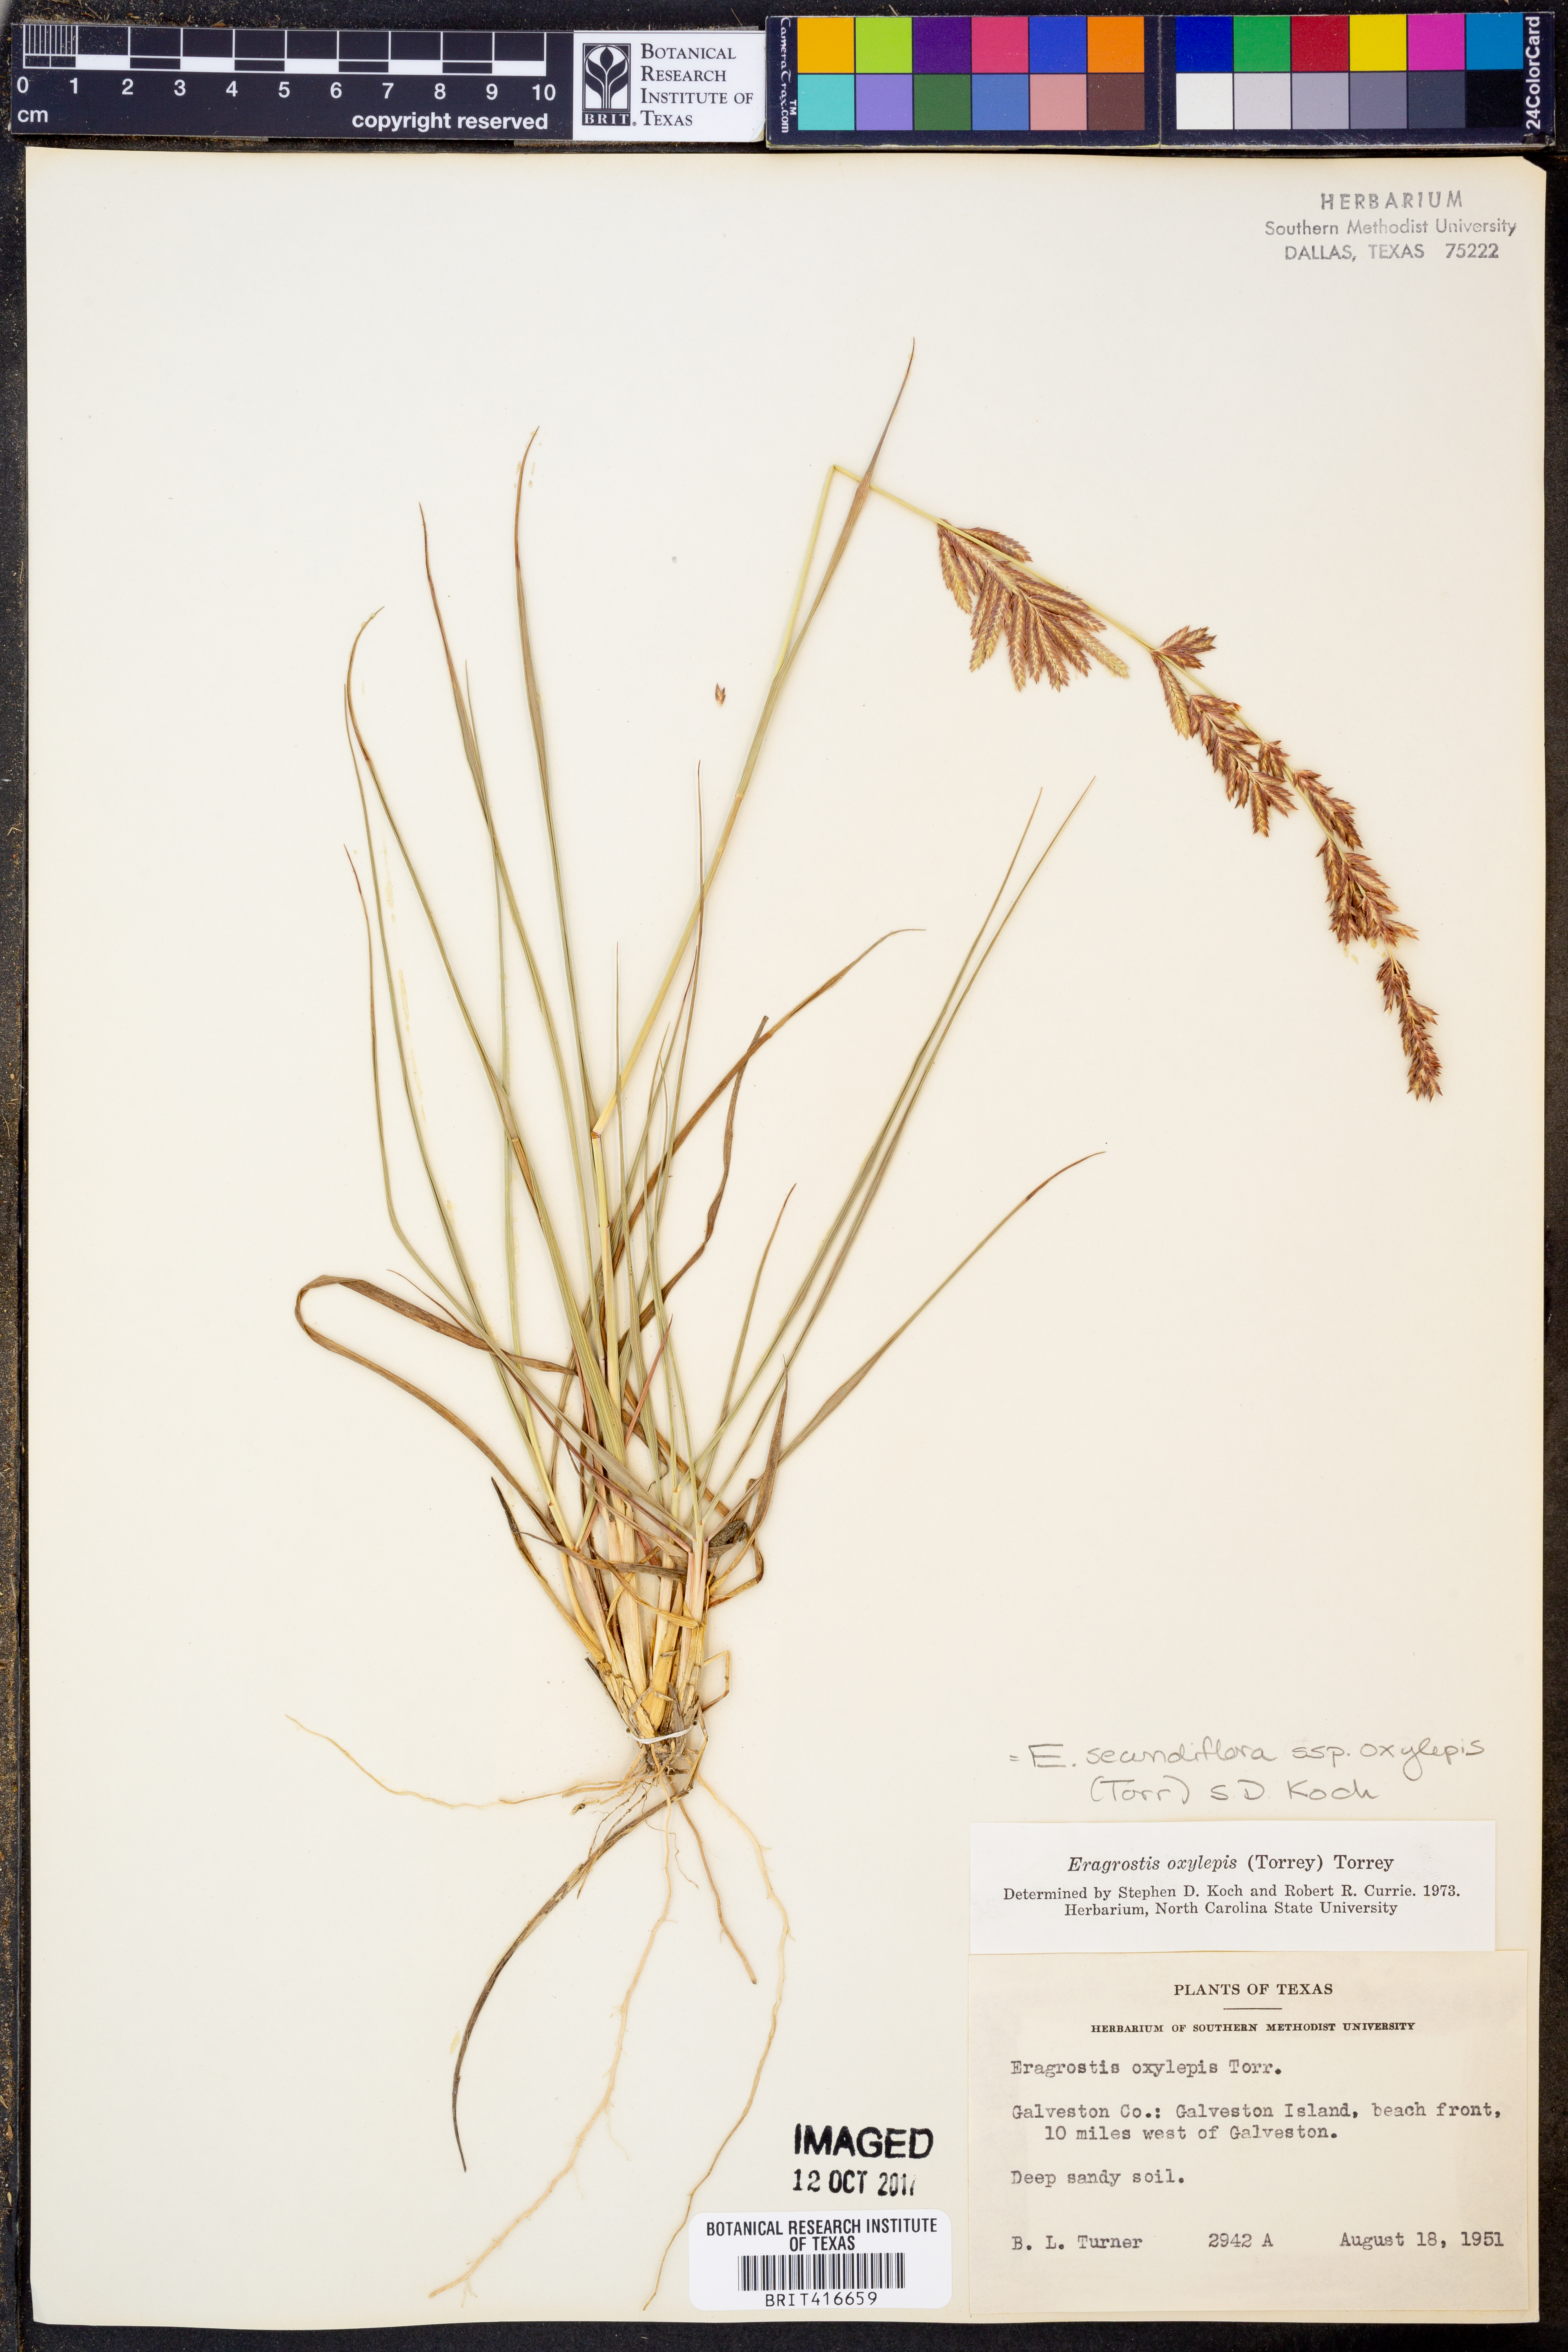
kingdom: Plantae
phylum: Tracheophyta
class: Liliopsida
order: Poales
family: Poaceae
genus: Eragrostis
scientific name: Eragrostis secundiflora
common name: Red love grass
